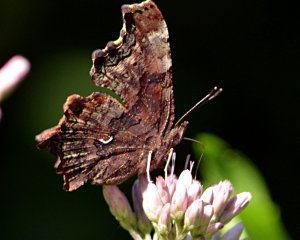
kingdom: Animalia
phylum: Arthropoda
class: Insecta
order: Lepidoptera
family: Nymphalidae
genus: Polygonia
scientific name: Polygonia faunus
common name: Green Comma
